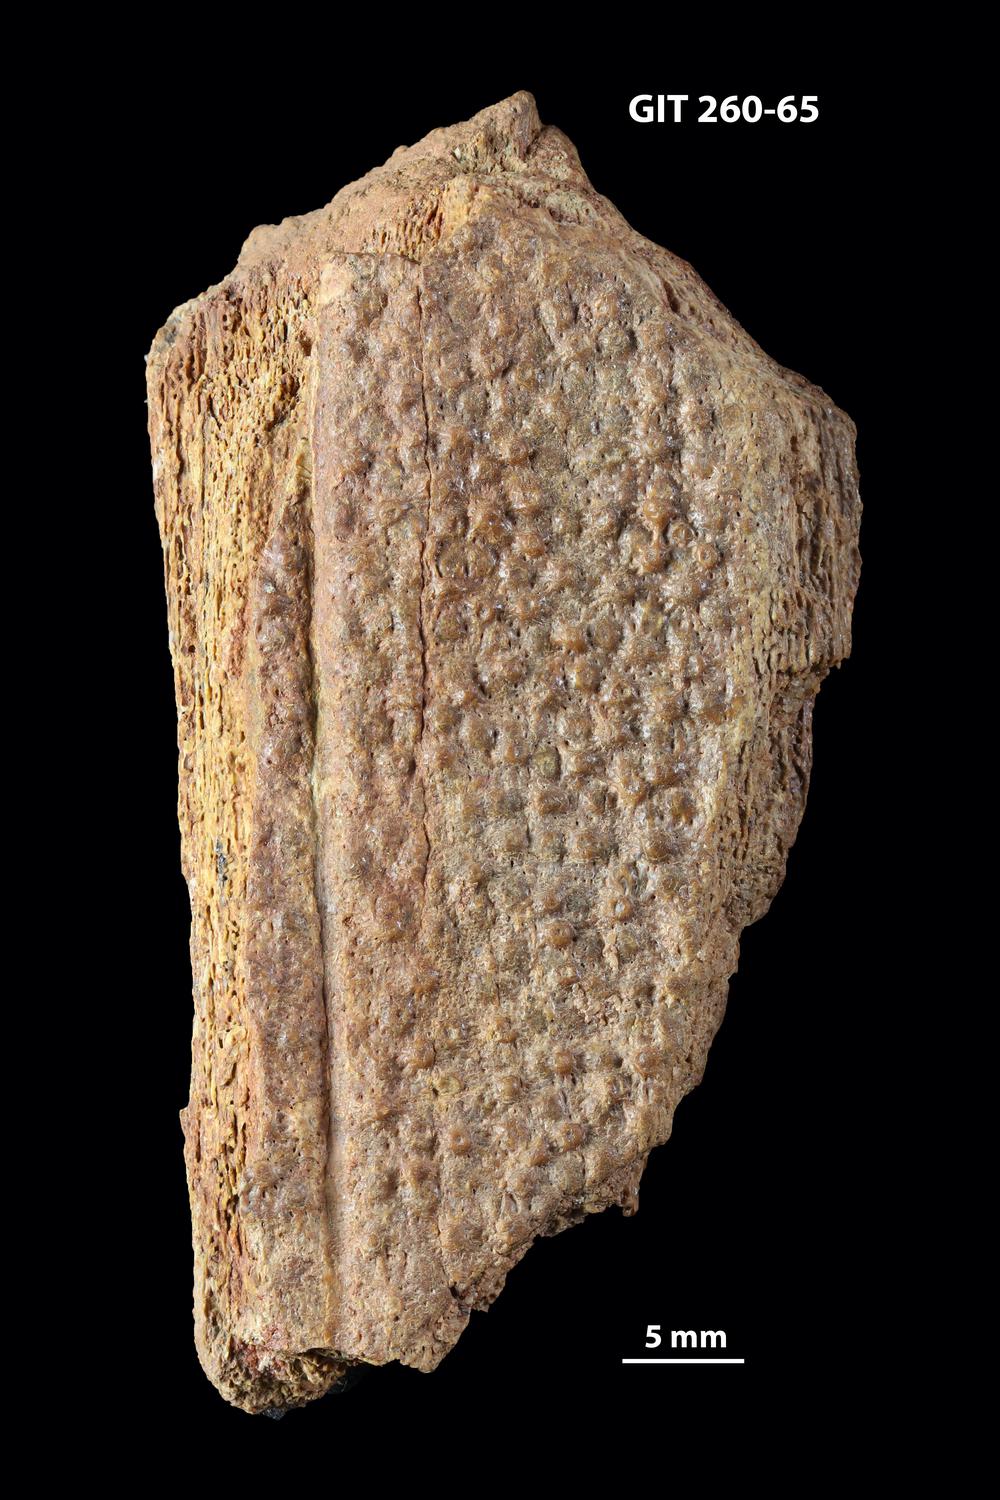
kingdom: Animalia
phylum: Chordata
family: Homostiidae
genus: Homostius
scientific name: Homostius
